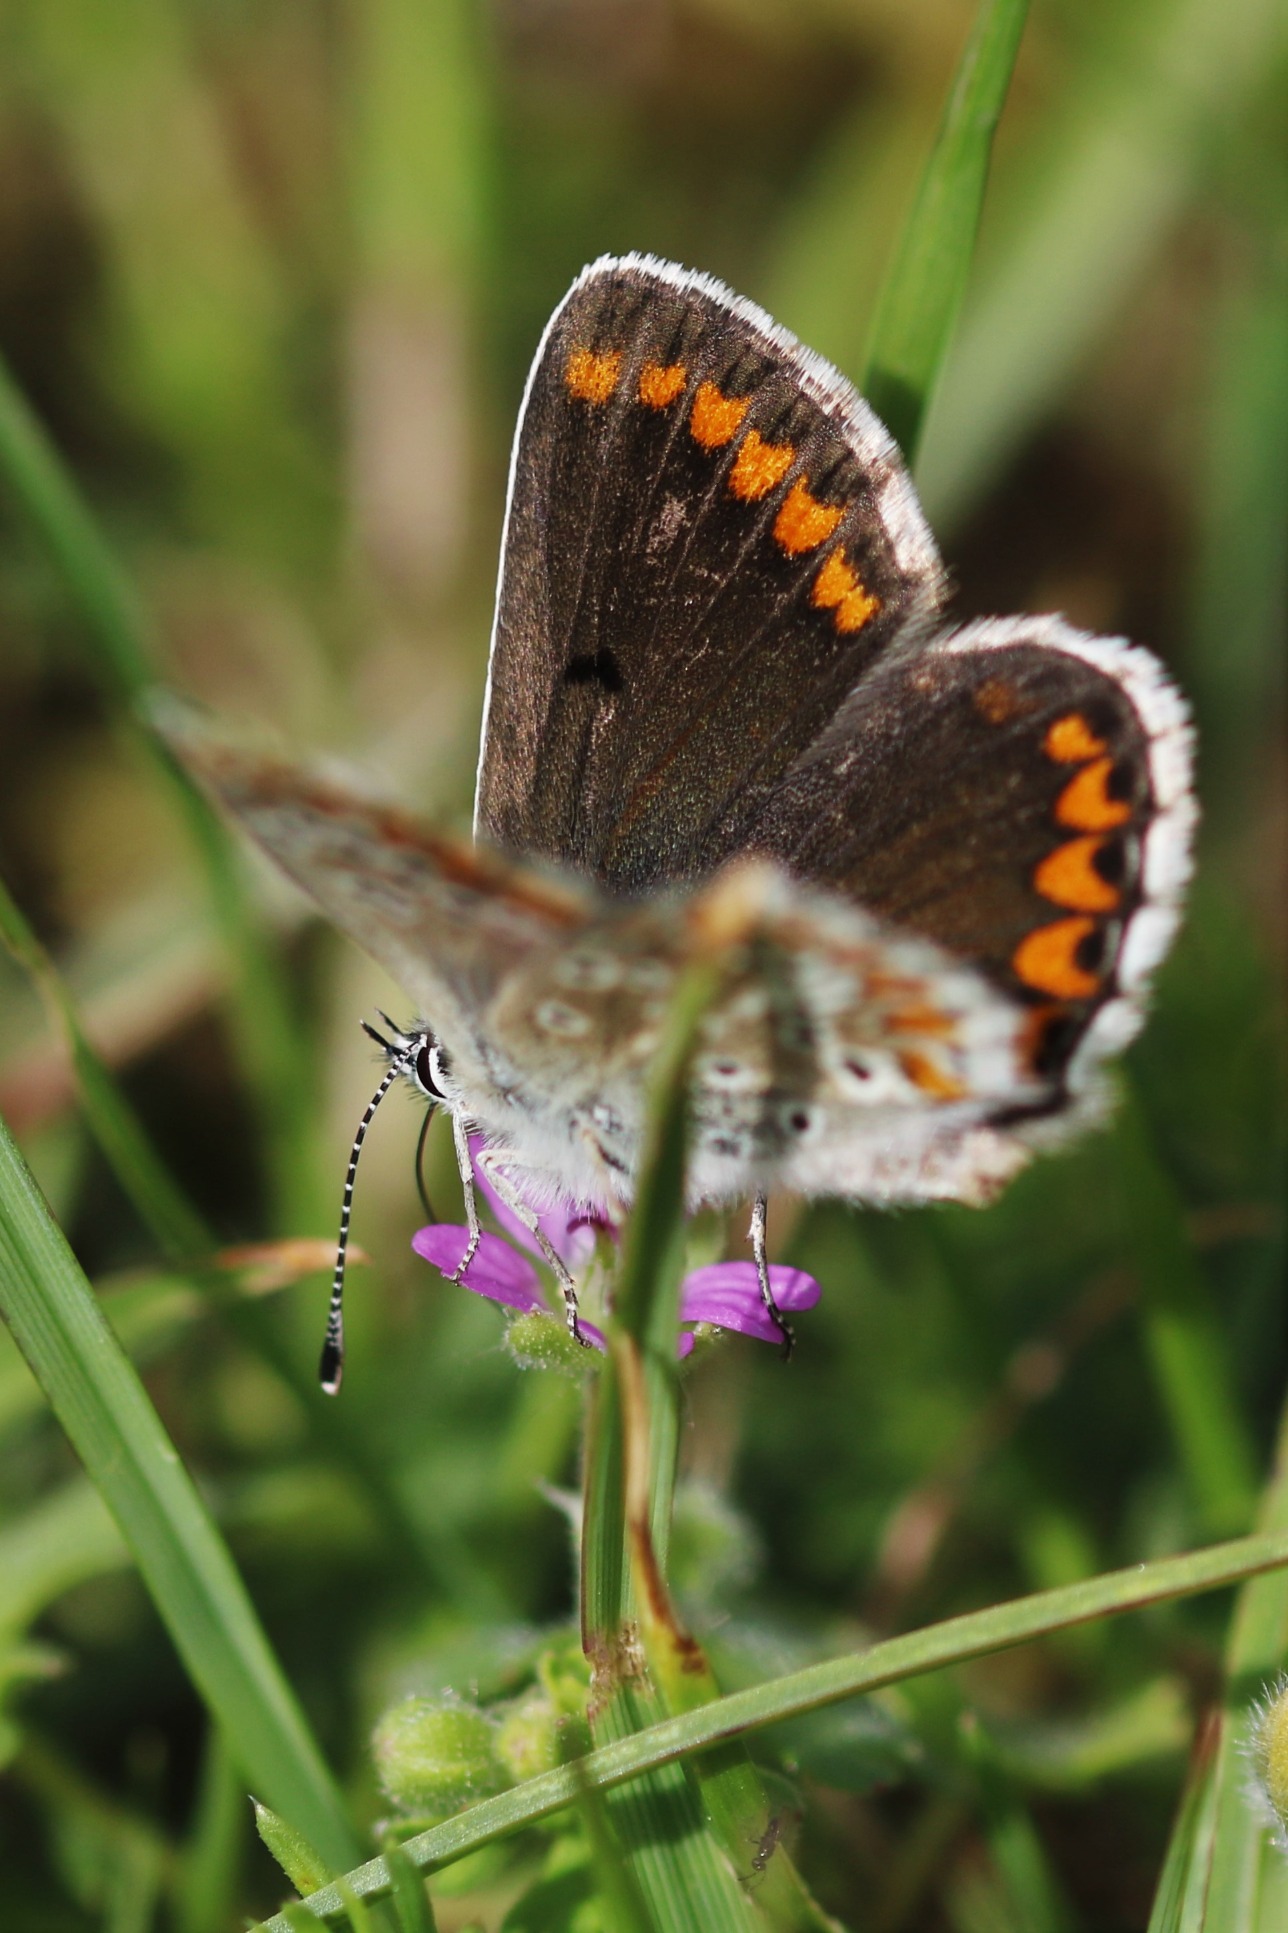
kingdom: Animalia
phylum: Arthropoda
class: Insecta
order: Lepidoptera
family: Lycaenidae
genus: Aricia
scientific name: Aricia agestis
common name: Rødplettet blåfugl
